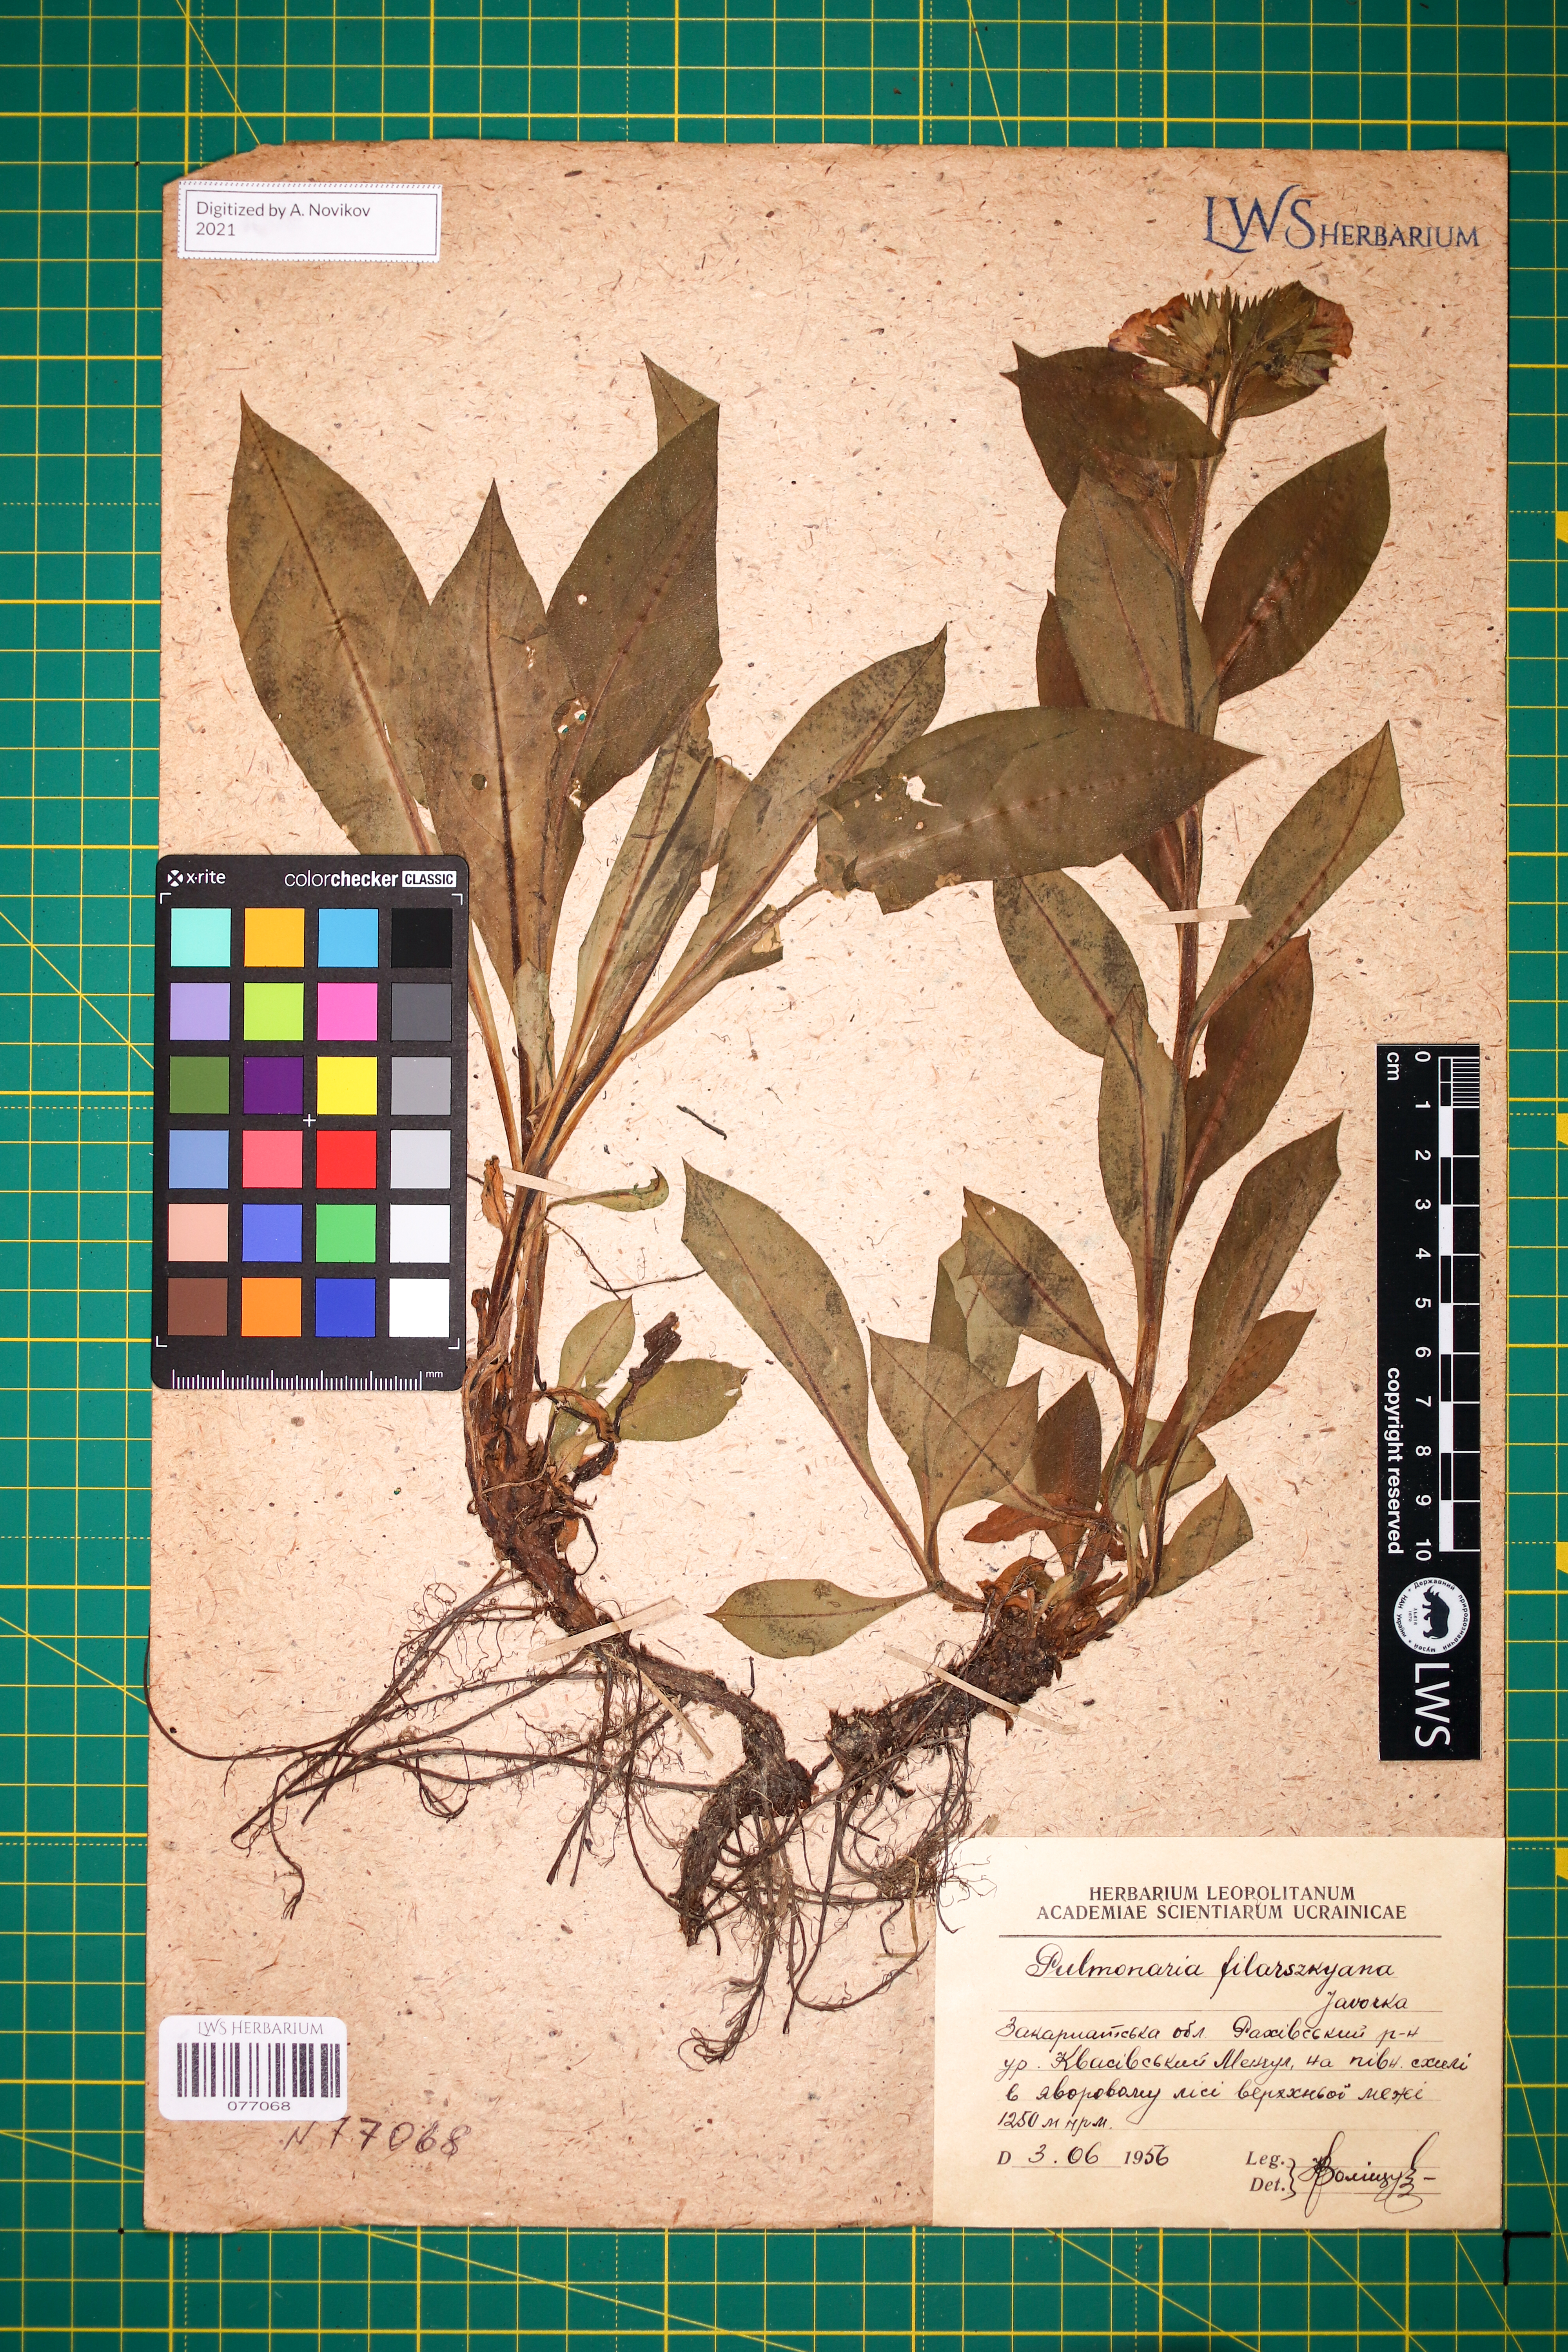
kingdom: Plantae
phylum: Tracheophyta
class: Magnoliopsida
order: Boraginales
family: Boraginaceae
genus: Pulmonaria
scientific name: Pulmonaria filarszkyana
